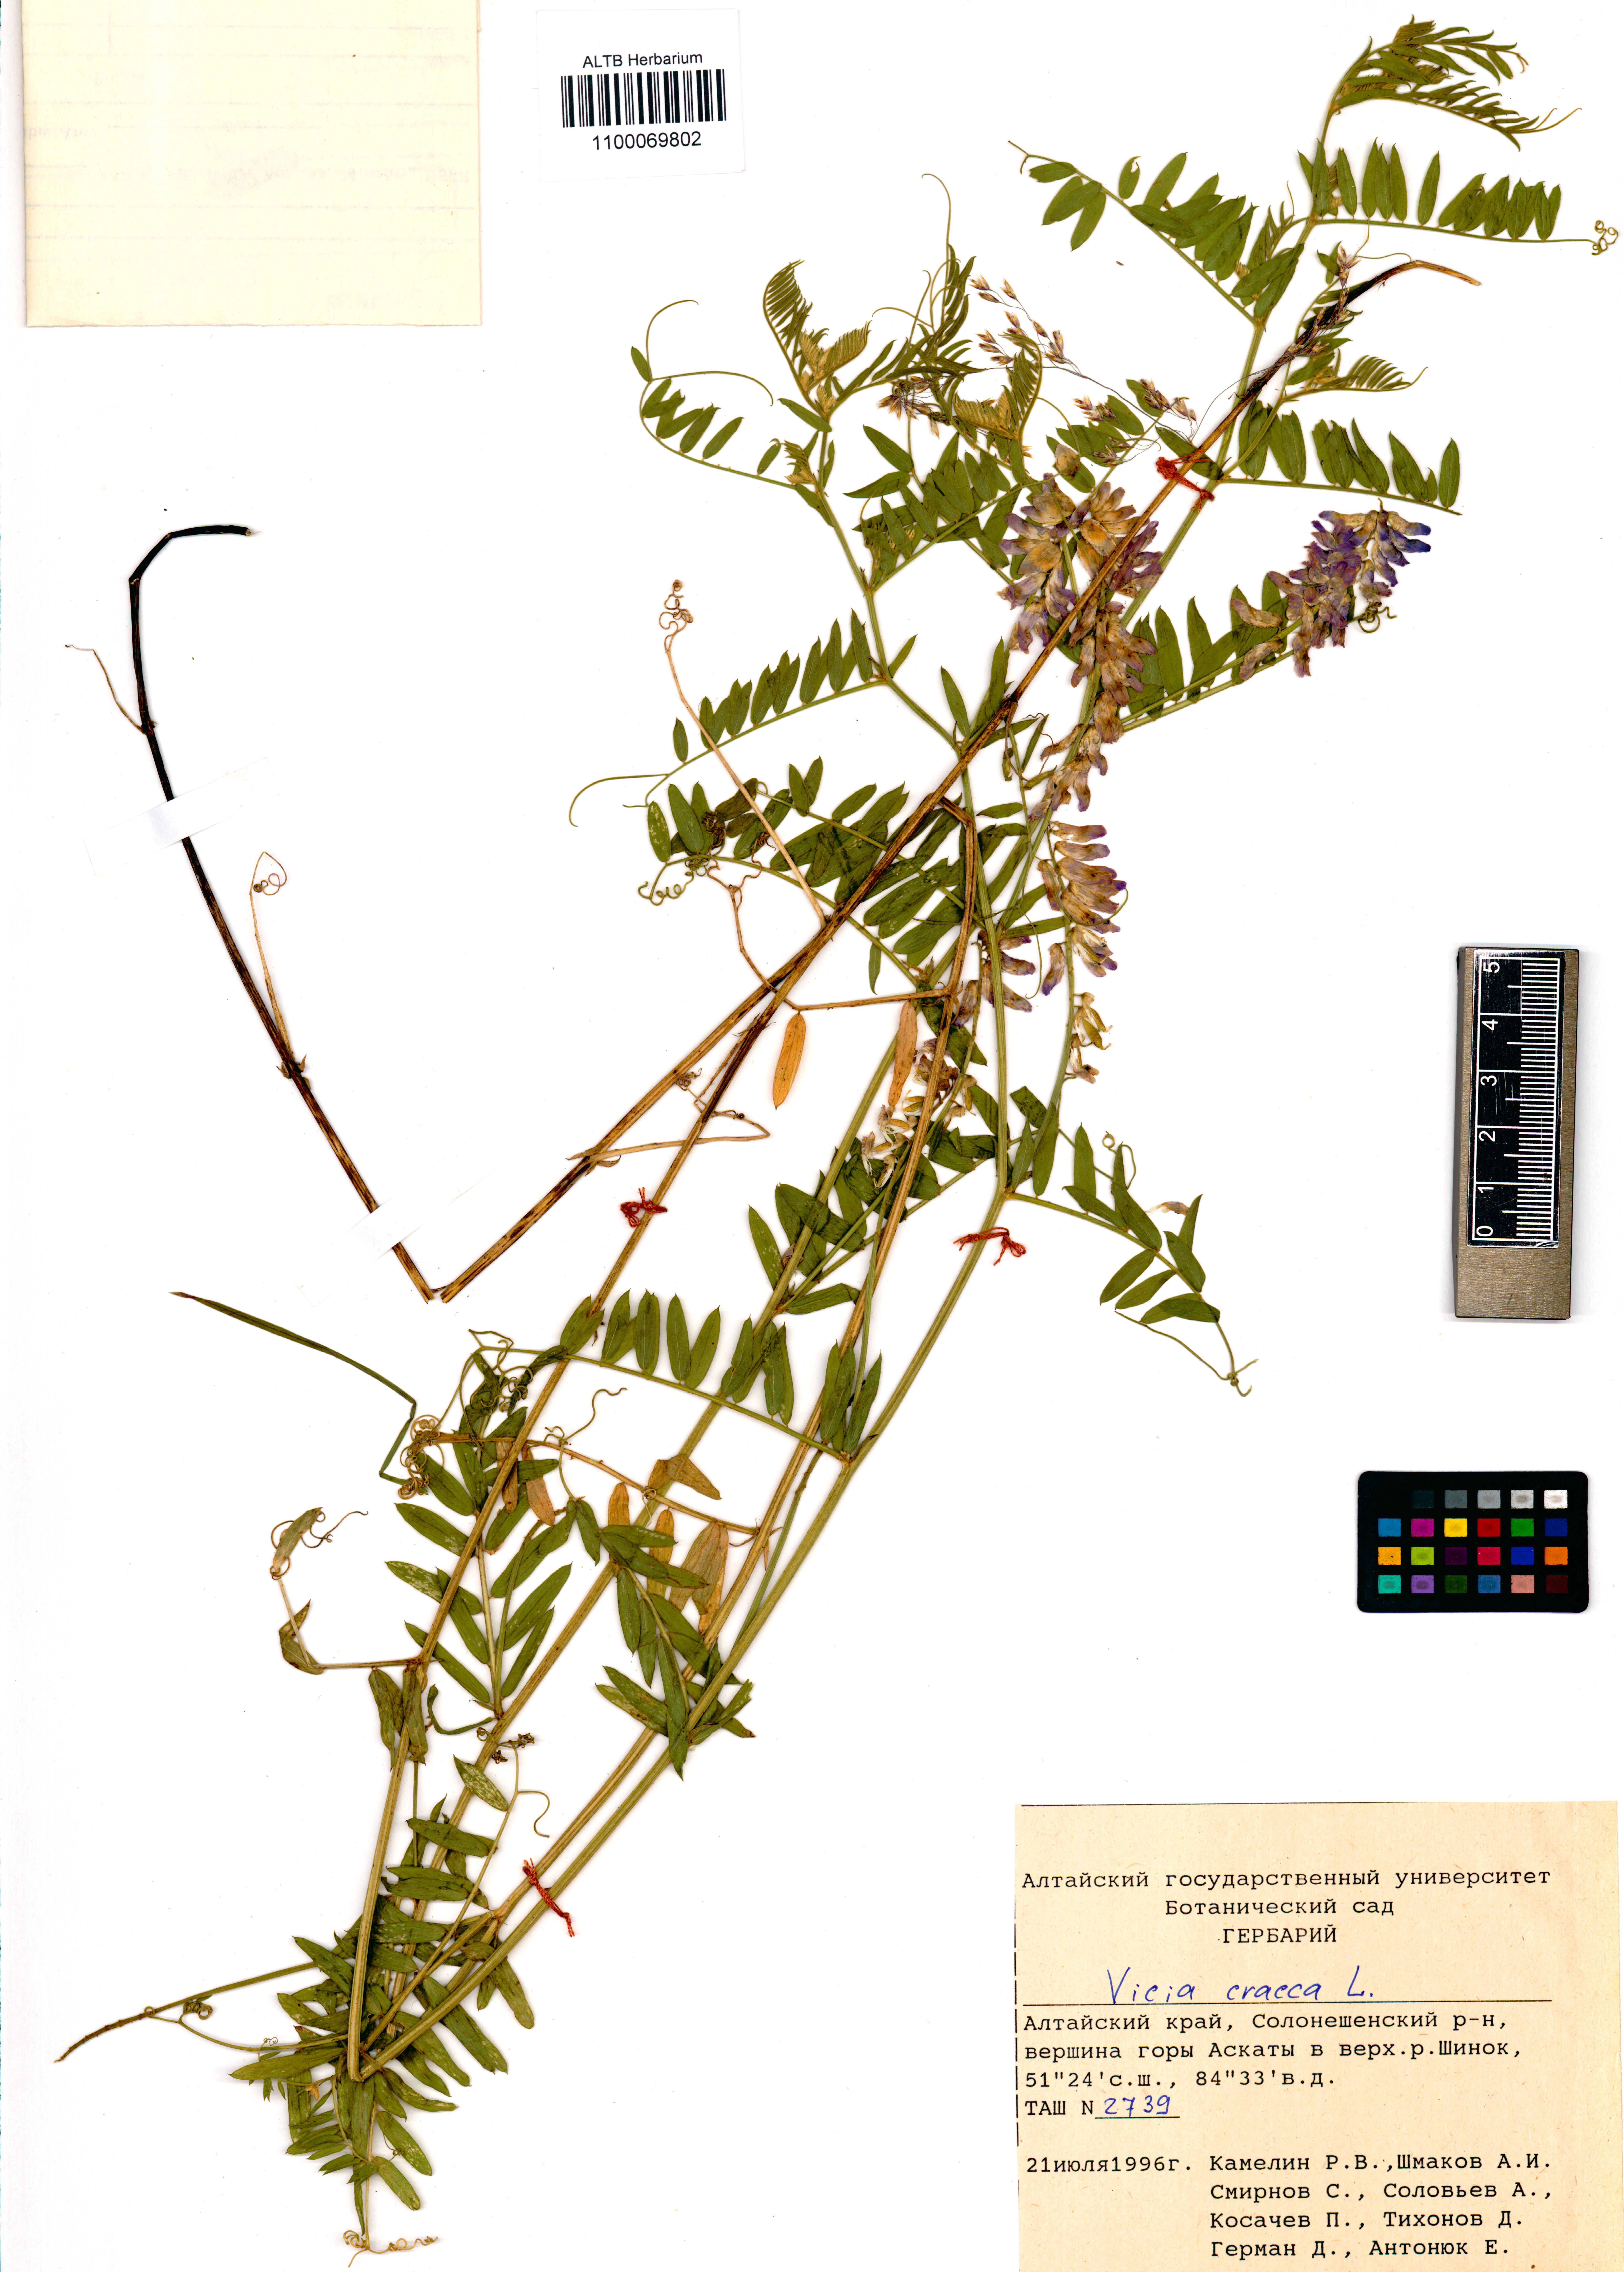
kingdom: Plantae
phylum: Tracheophyta
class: Magnoliopsida
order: Fabales
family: Fabaceae
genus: Vicia
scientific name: Vicia cracca
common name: Bird vetch
